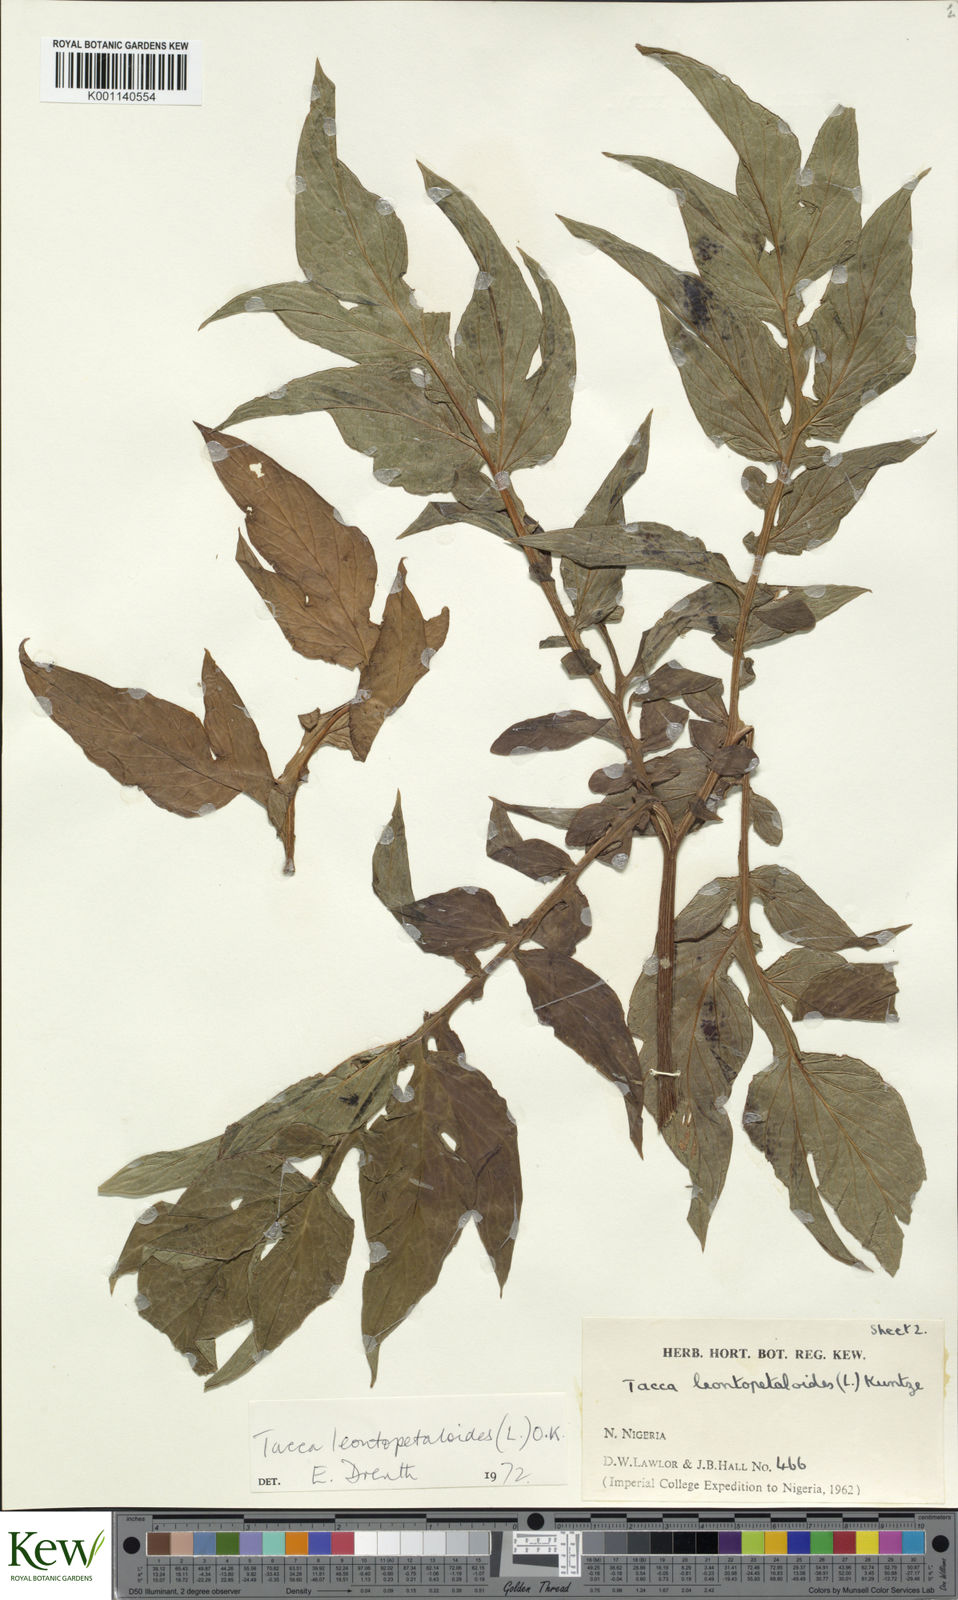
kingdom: Plantae
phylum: Tracheophyta
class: Liliopsida
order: Dioscoreales
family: Dioscoreaceae
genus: Tacca
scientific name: Tacca leontopetaloides
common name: Arrowroot
